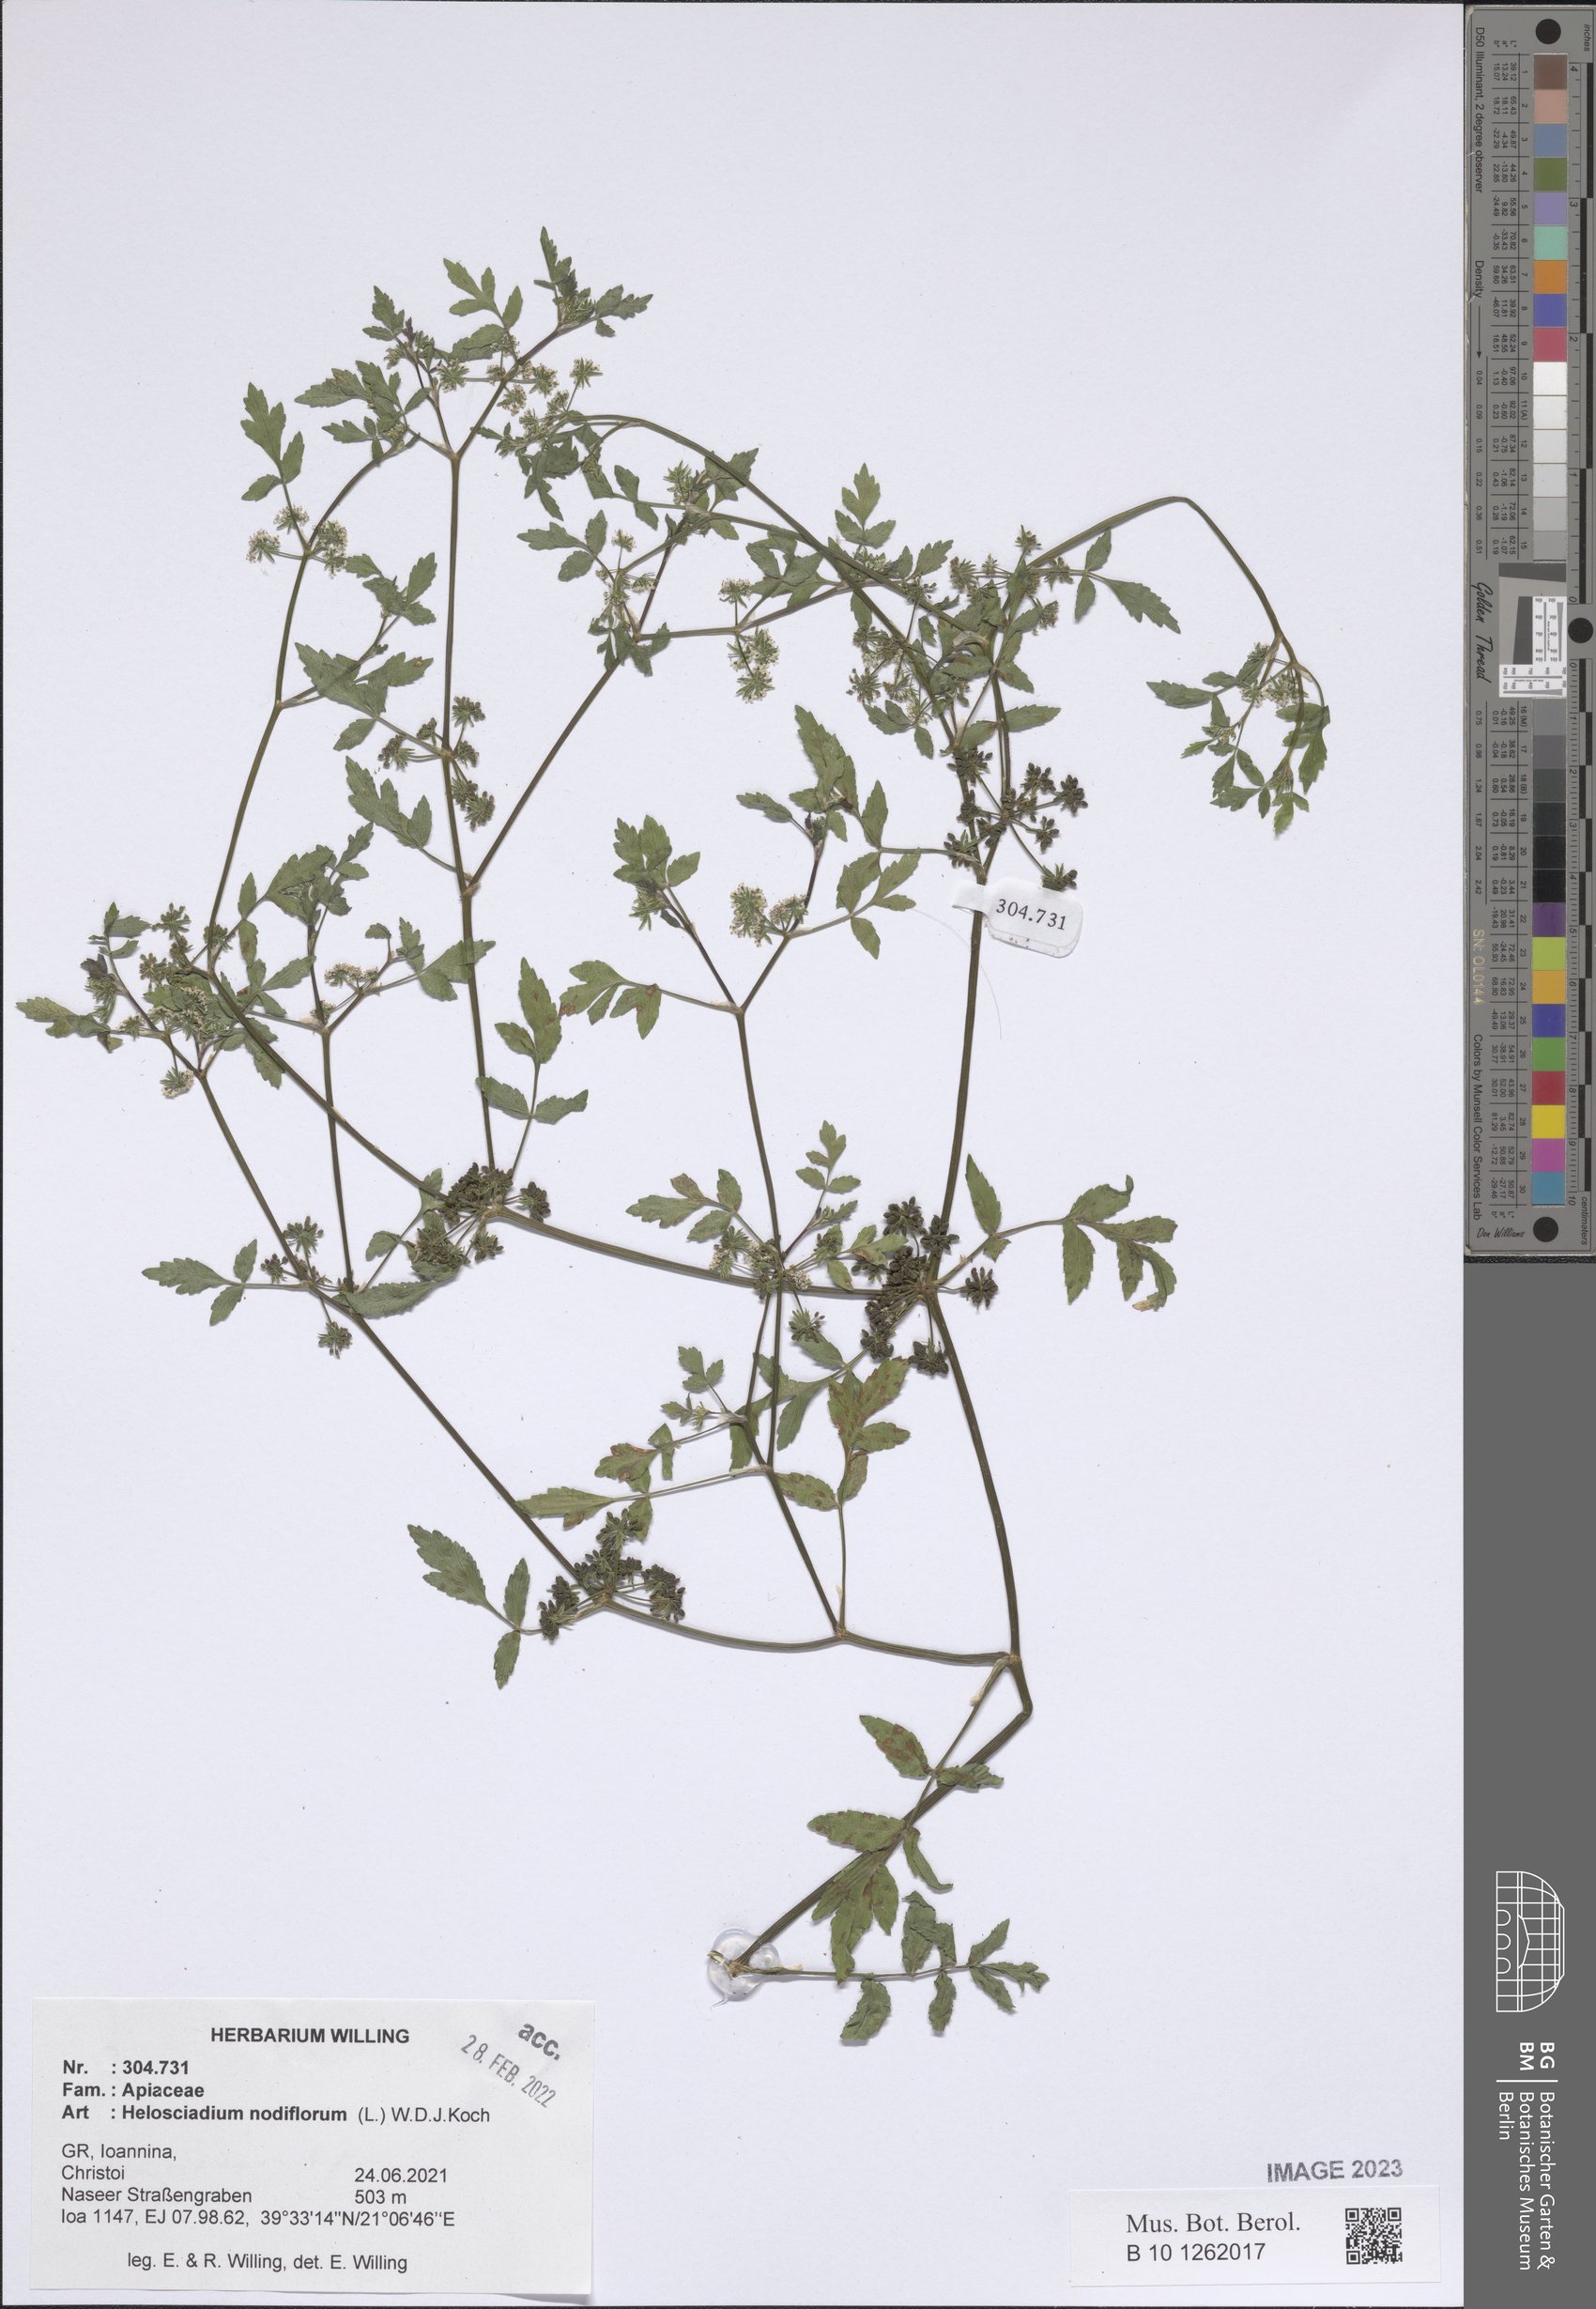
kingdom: Plantae
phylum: Tracheophyta
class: Magnoliopsida
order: Apiales
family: Apiaceae
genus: Helosciadium
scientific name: Helosciadium nodiflorum
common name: Fool's-watercress
